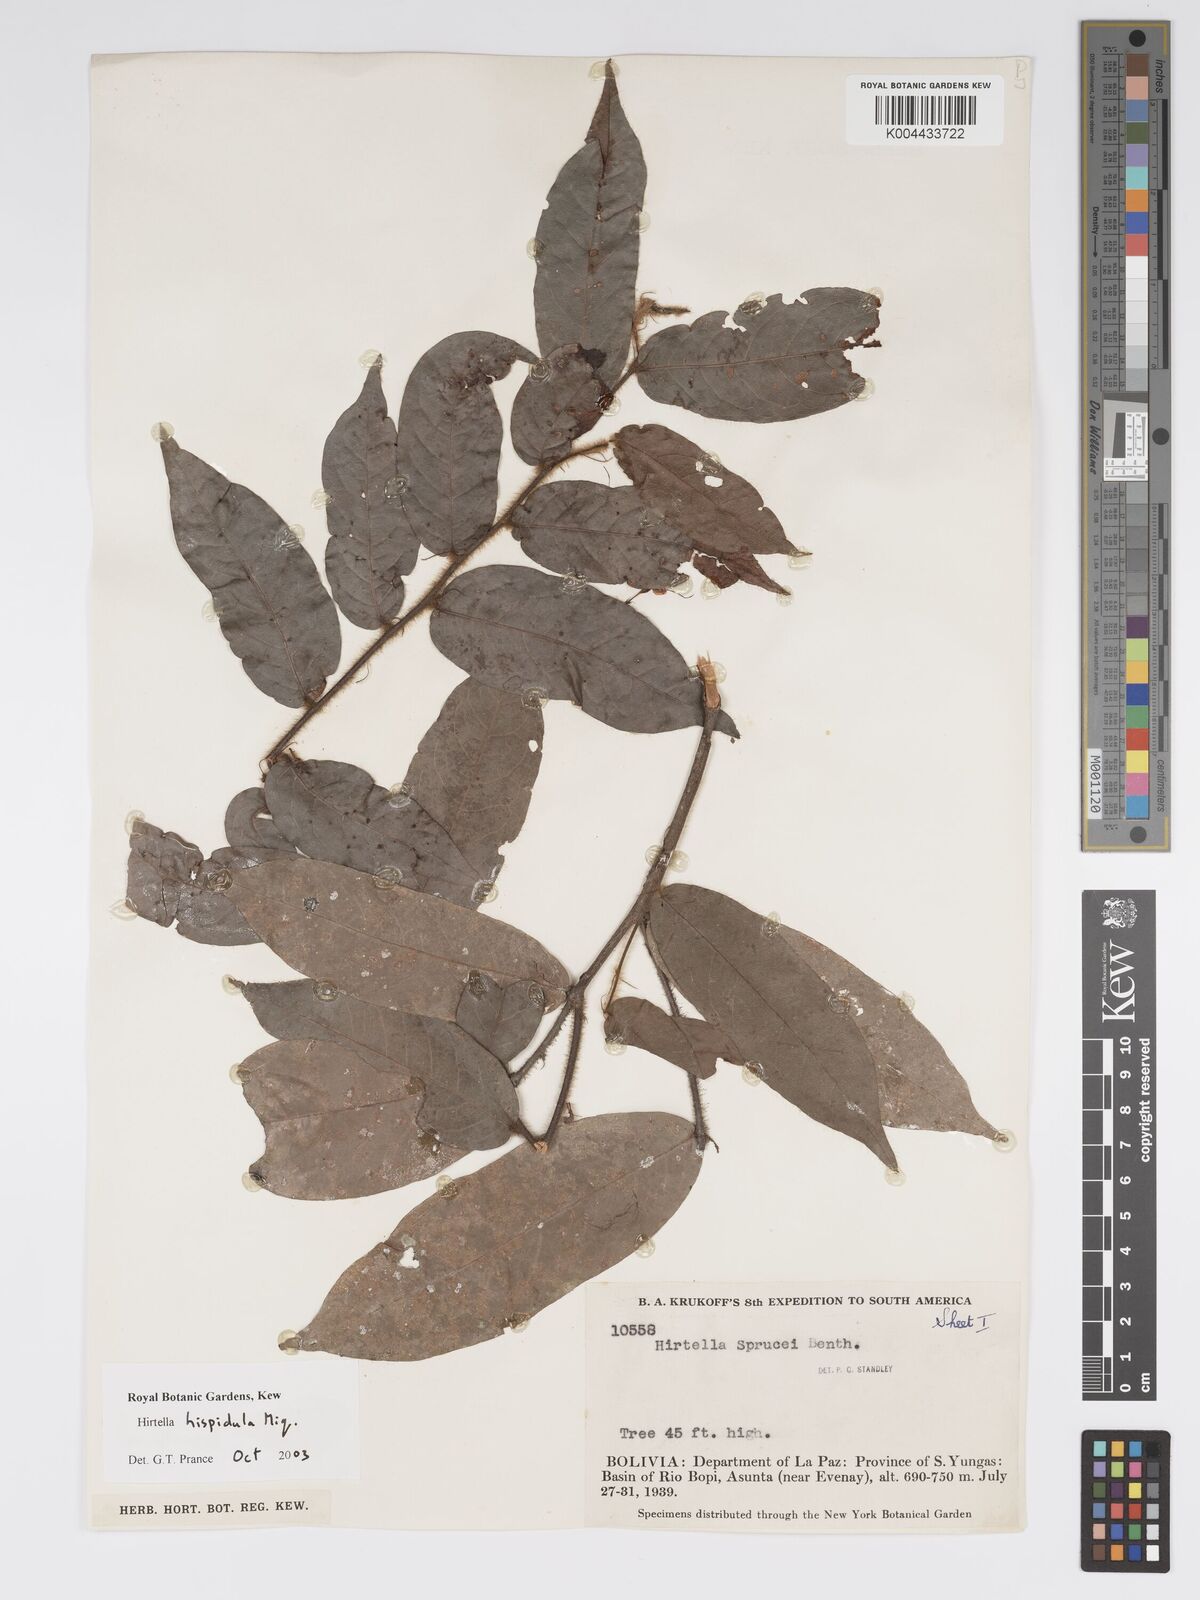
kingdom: Plantae
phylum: Tracheophyta
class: Magnoliopsida
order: Malpighiales
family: Chrysobalanaceae
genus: Hirtella
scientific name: Hirtella hispidula
